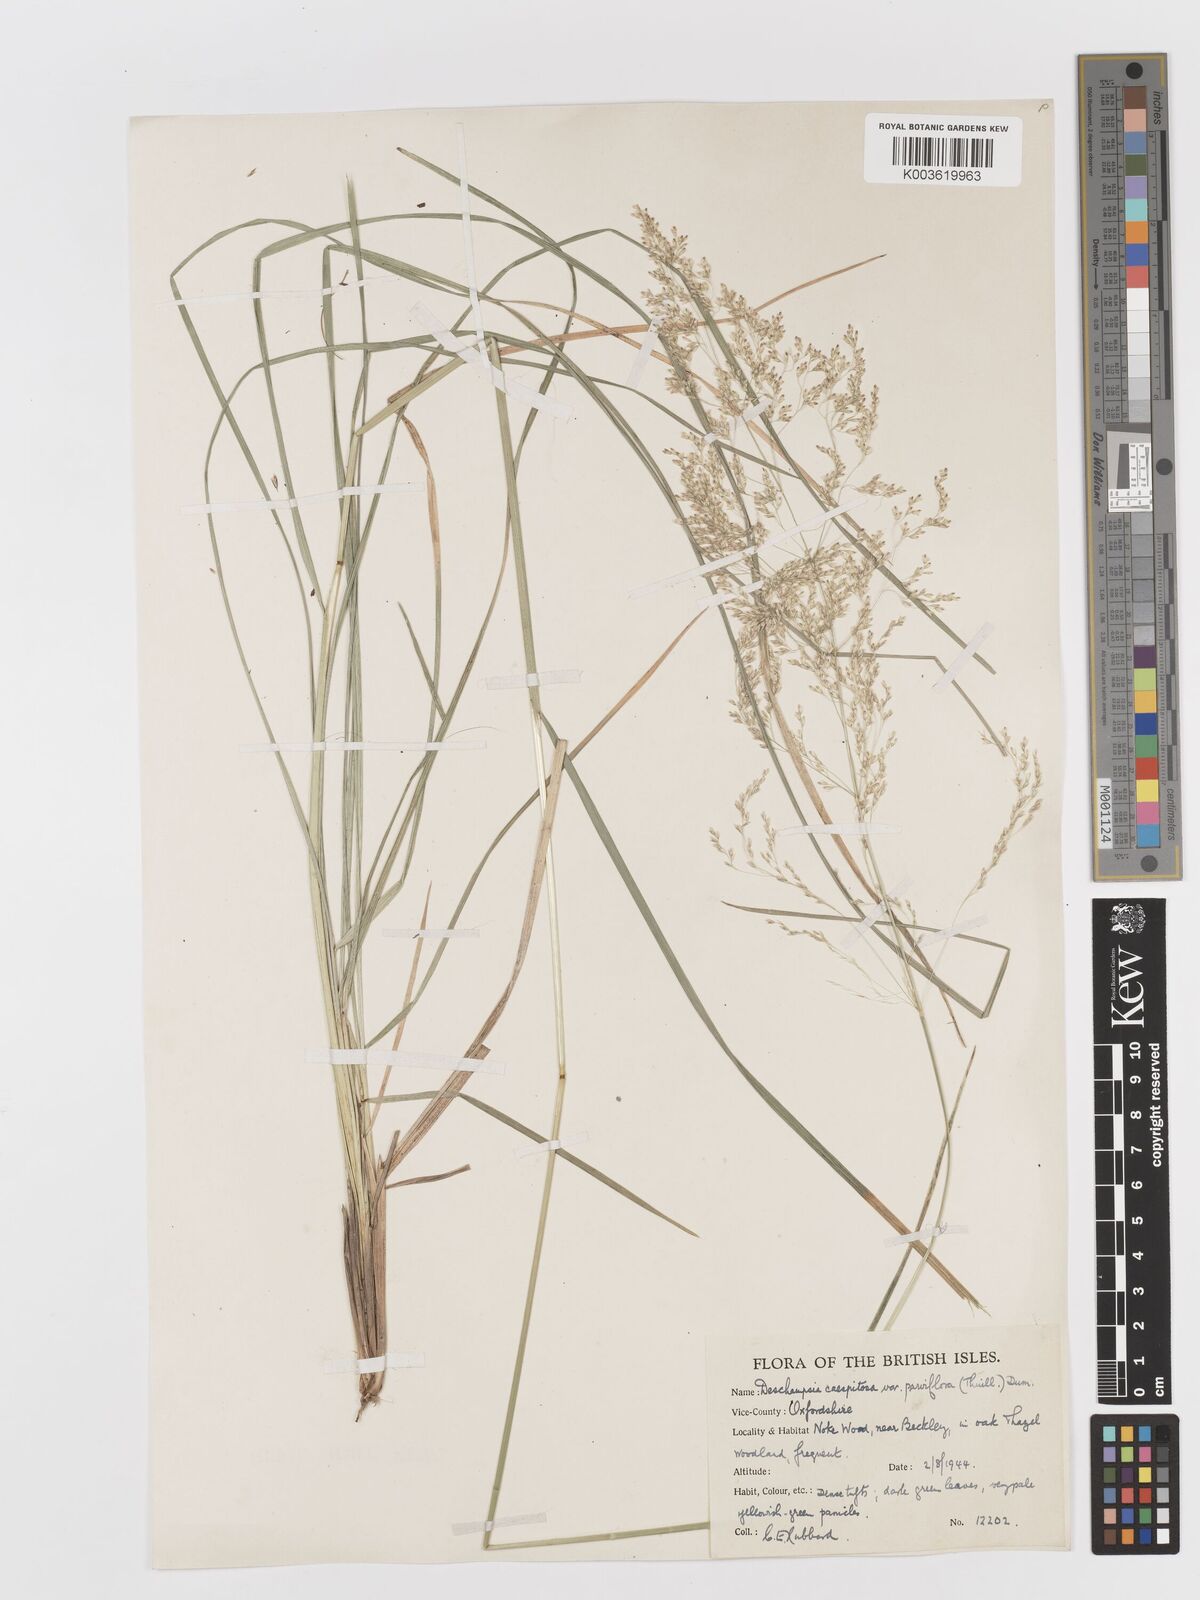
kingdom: Plantae
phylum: Tracheophyta
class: Liliopsida
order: Poales
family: Poaceae
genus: Deschampsia
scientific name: Deschampsia cespitosa
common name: Tufted hair-grass
